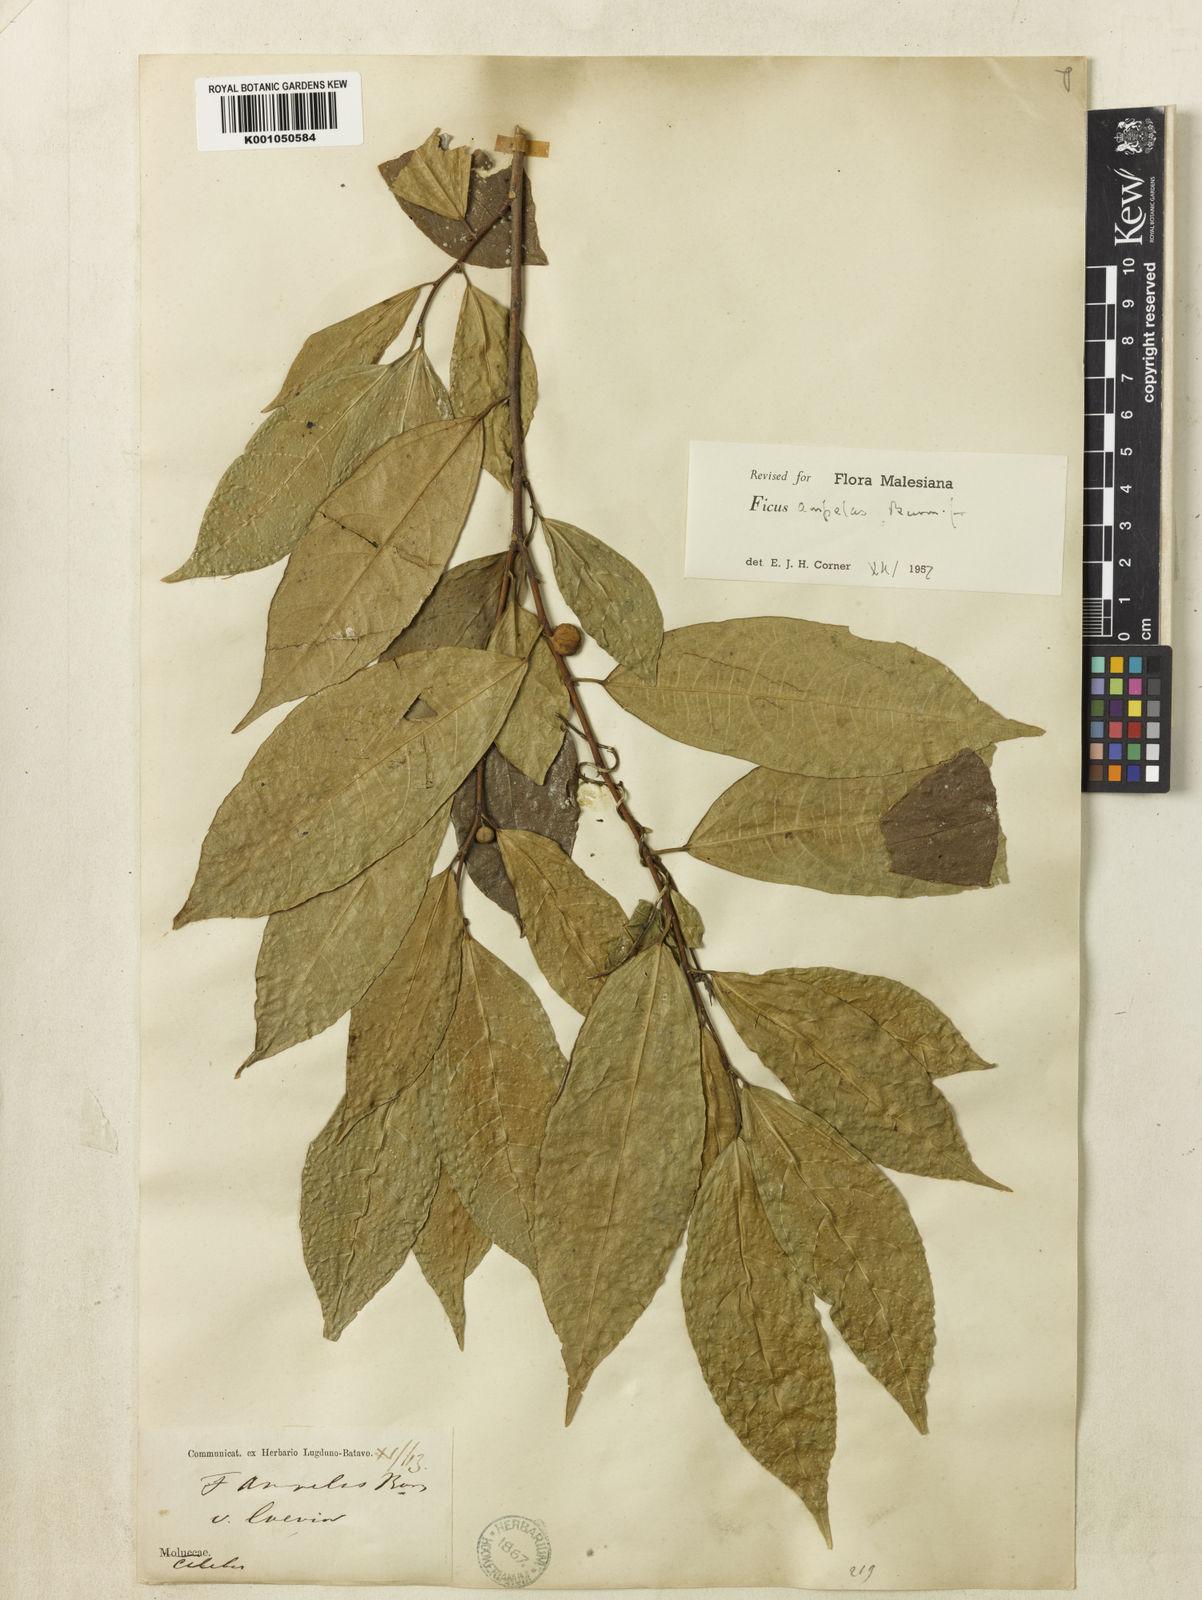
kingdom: Plantae
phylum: Tracheophyta
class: Magnoliopsida
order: Rosales
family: Moraceae
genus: Ficus
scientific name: Ficus
